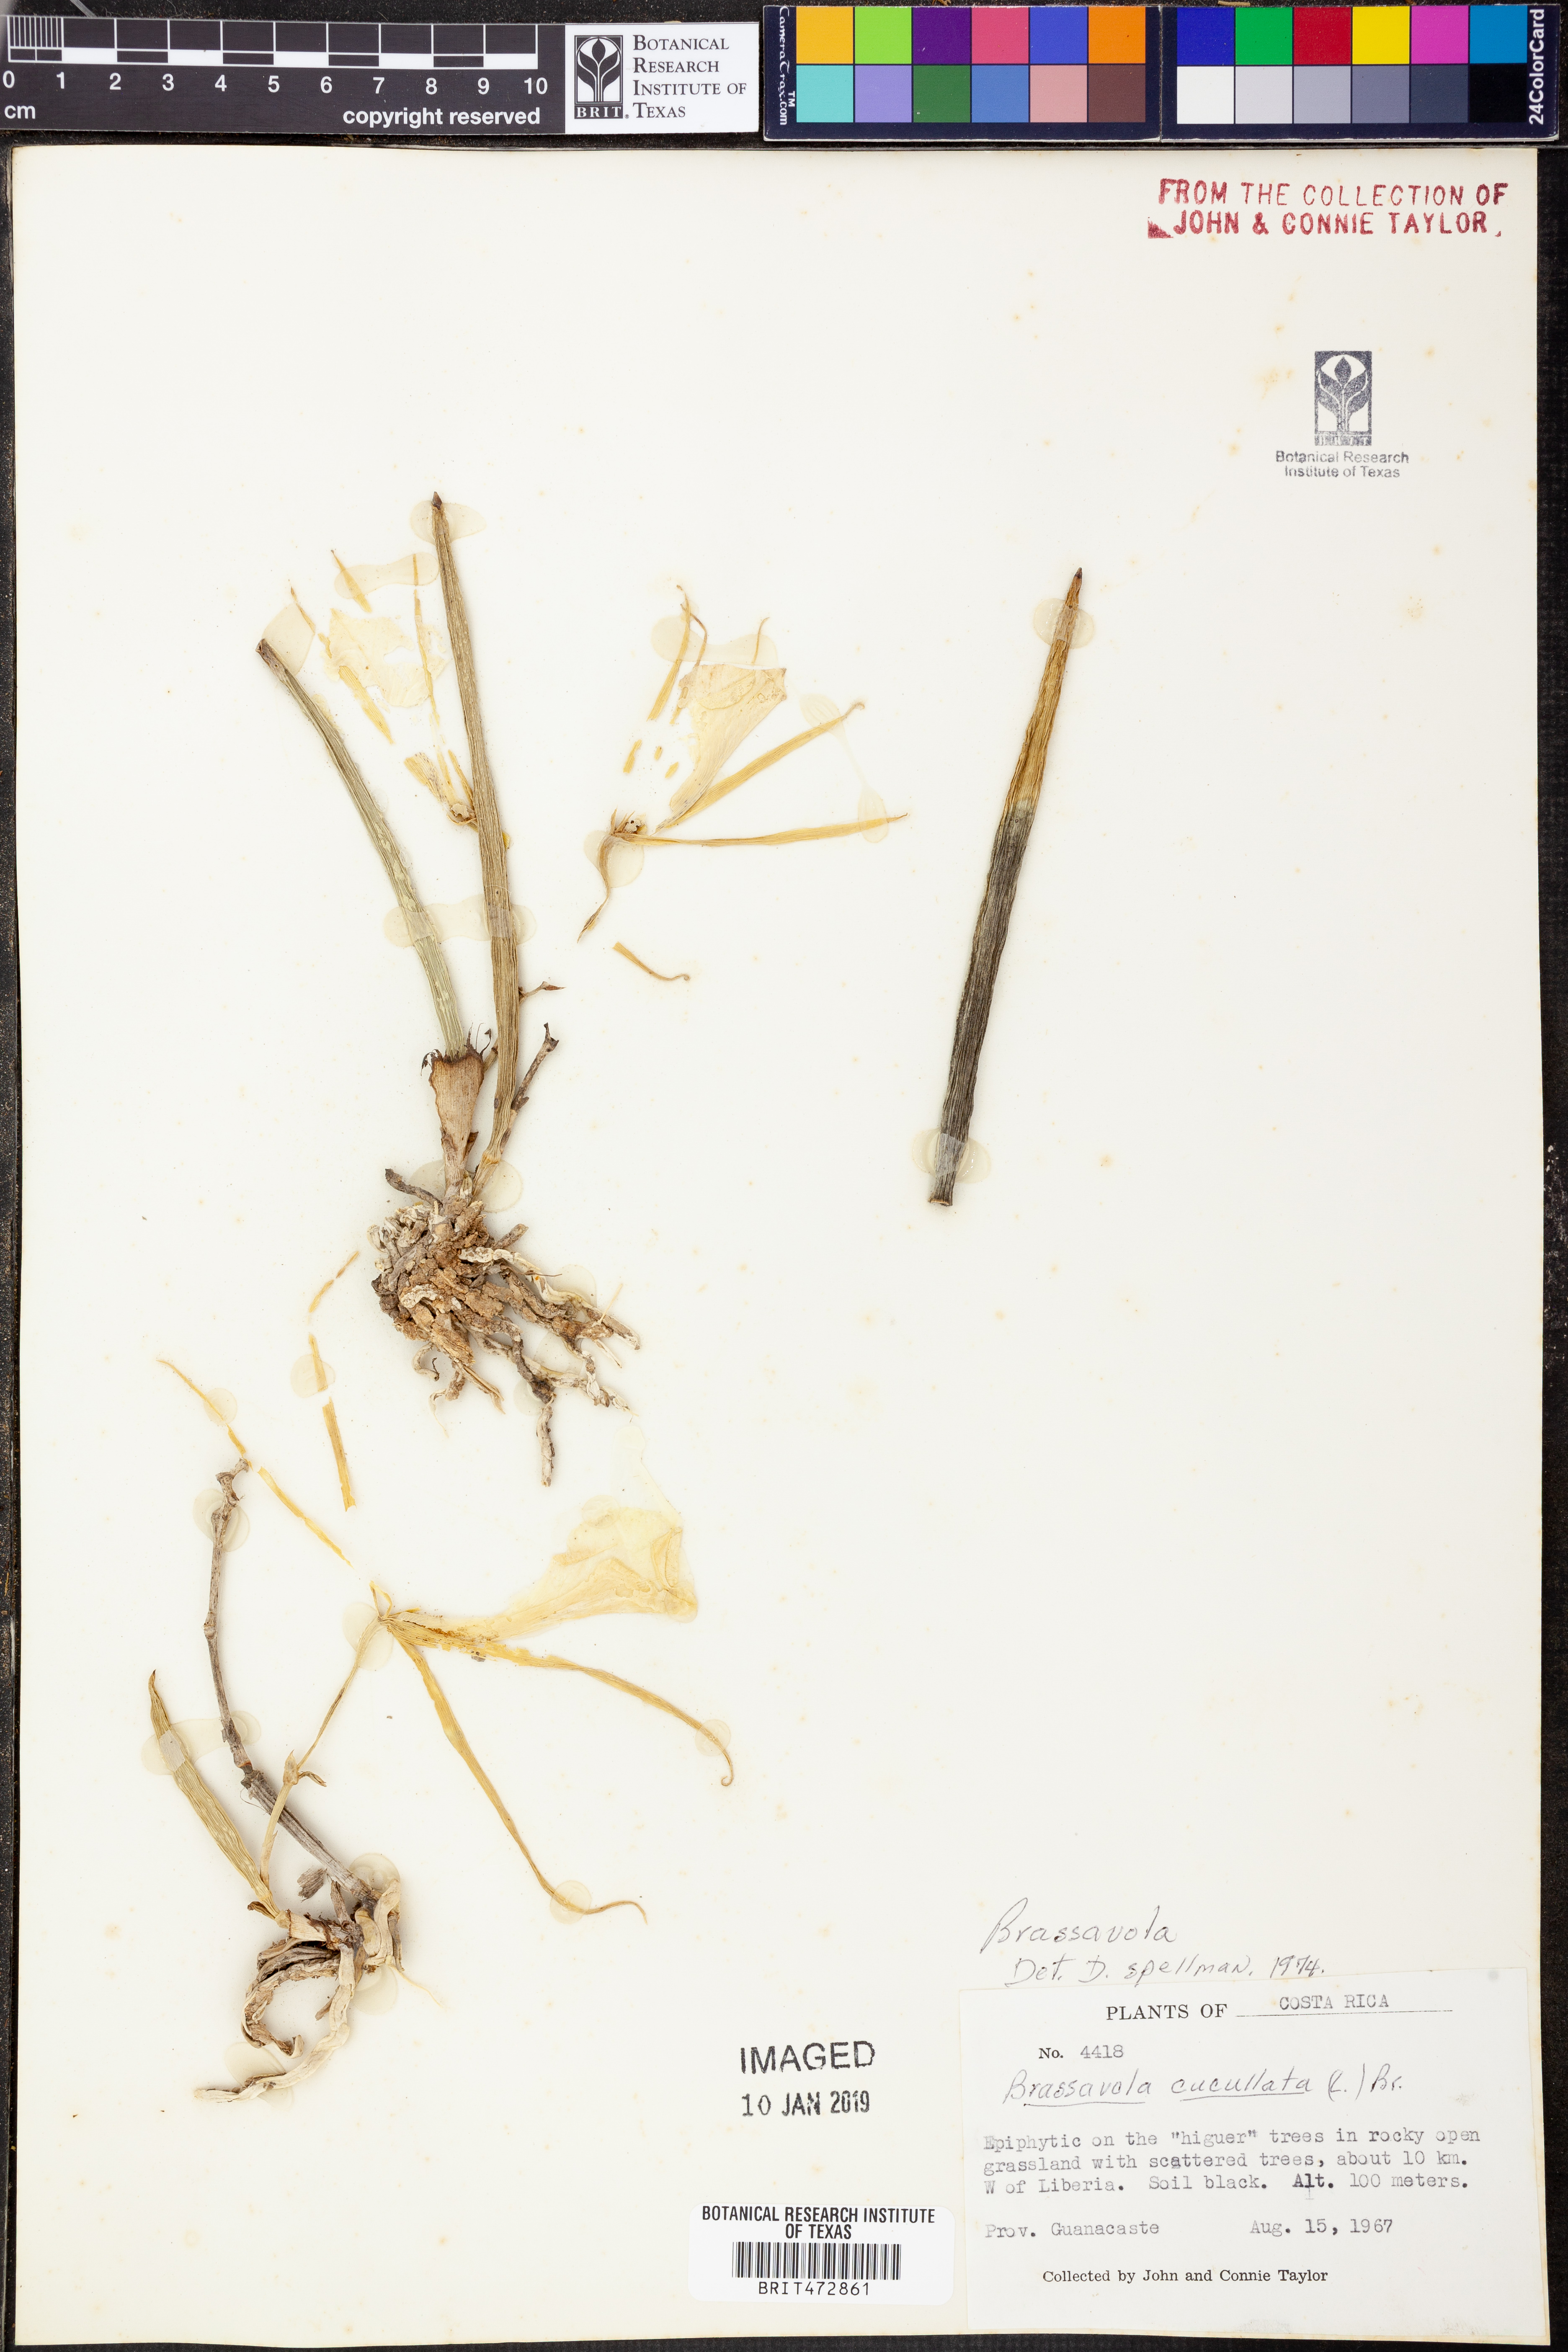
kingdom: Plantae
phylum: Tracheophyta
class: Liliopsida
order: Asparagales
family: Orchidaceae
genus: Brassavola
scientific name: Brassavola
